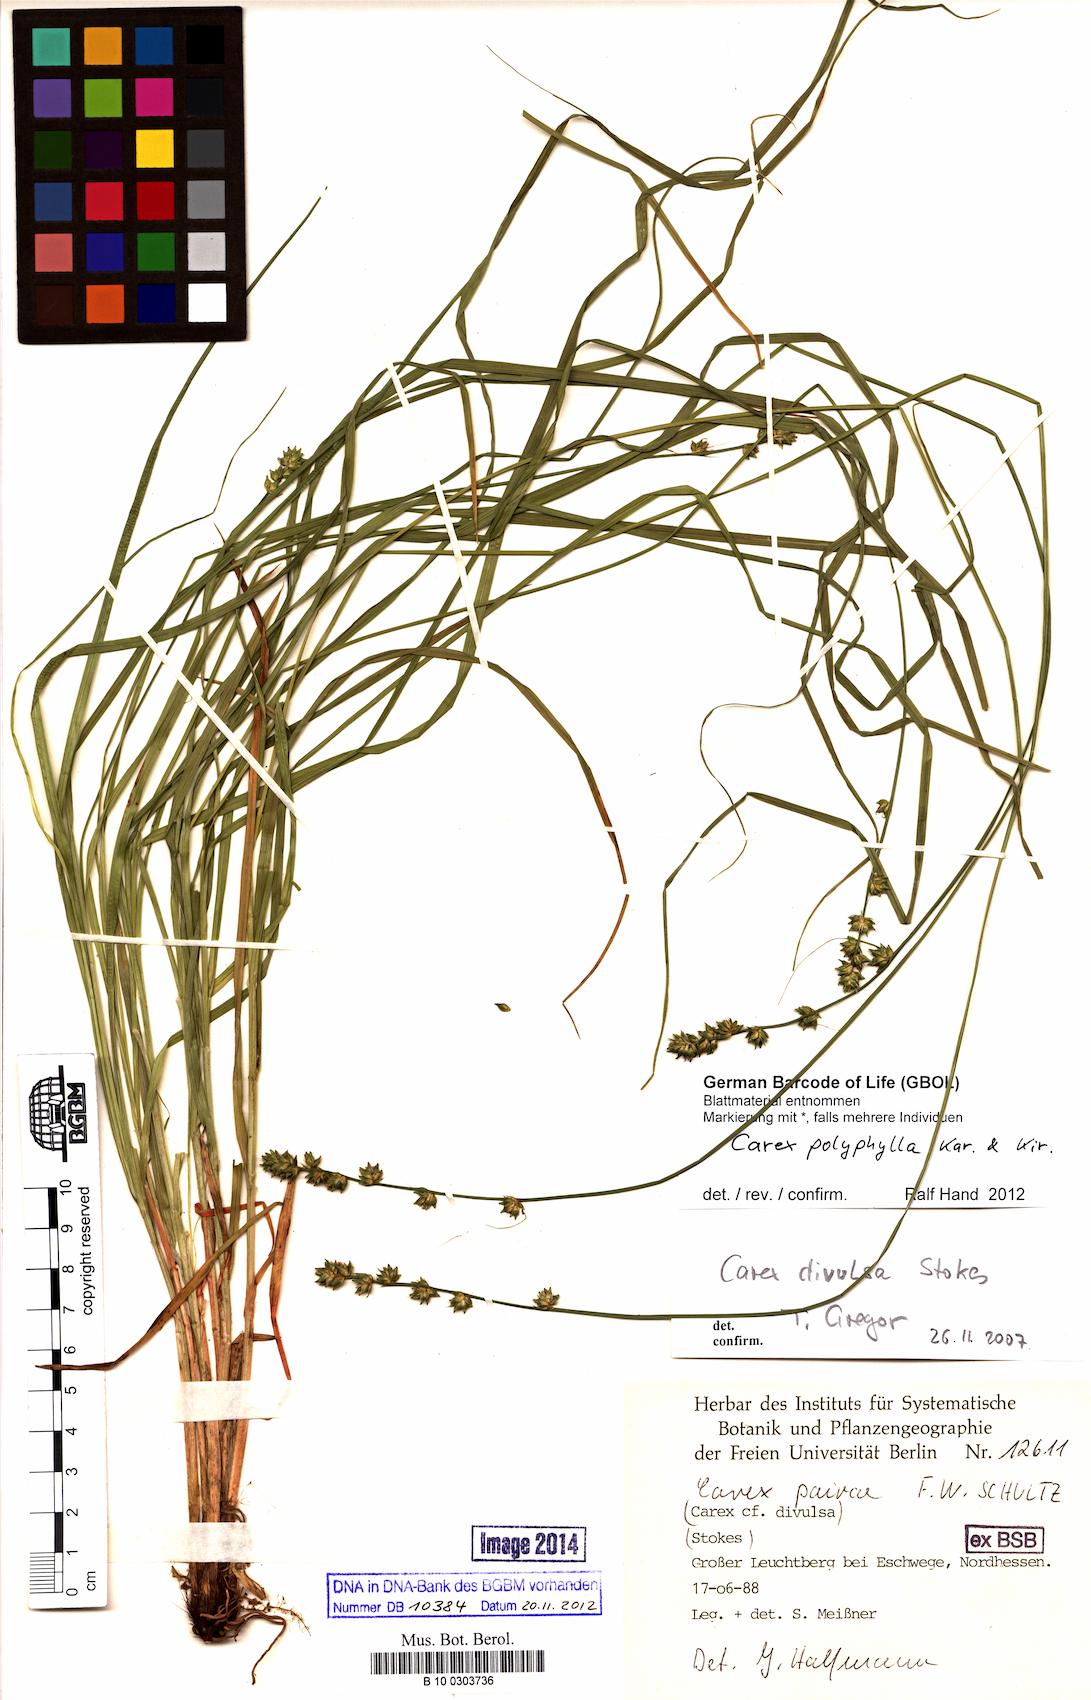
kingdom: Plantae
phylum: Tracheophyta
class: Liliopsida
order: Poales
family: Cyperaceae
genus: Carex
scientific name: Carex polyphylla
